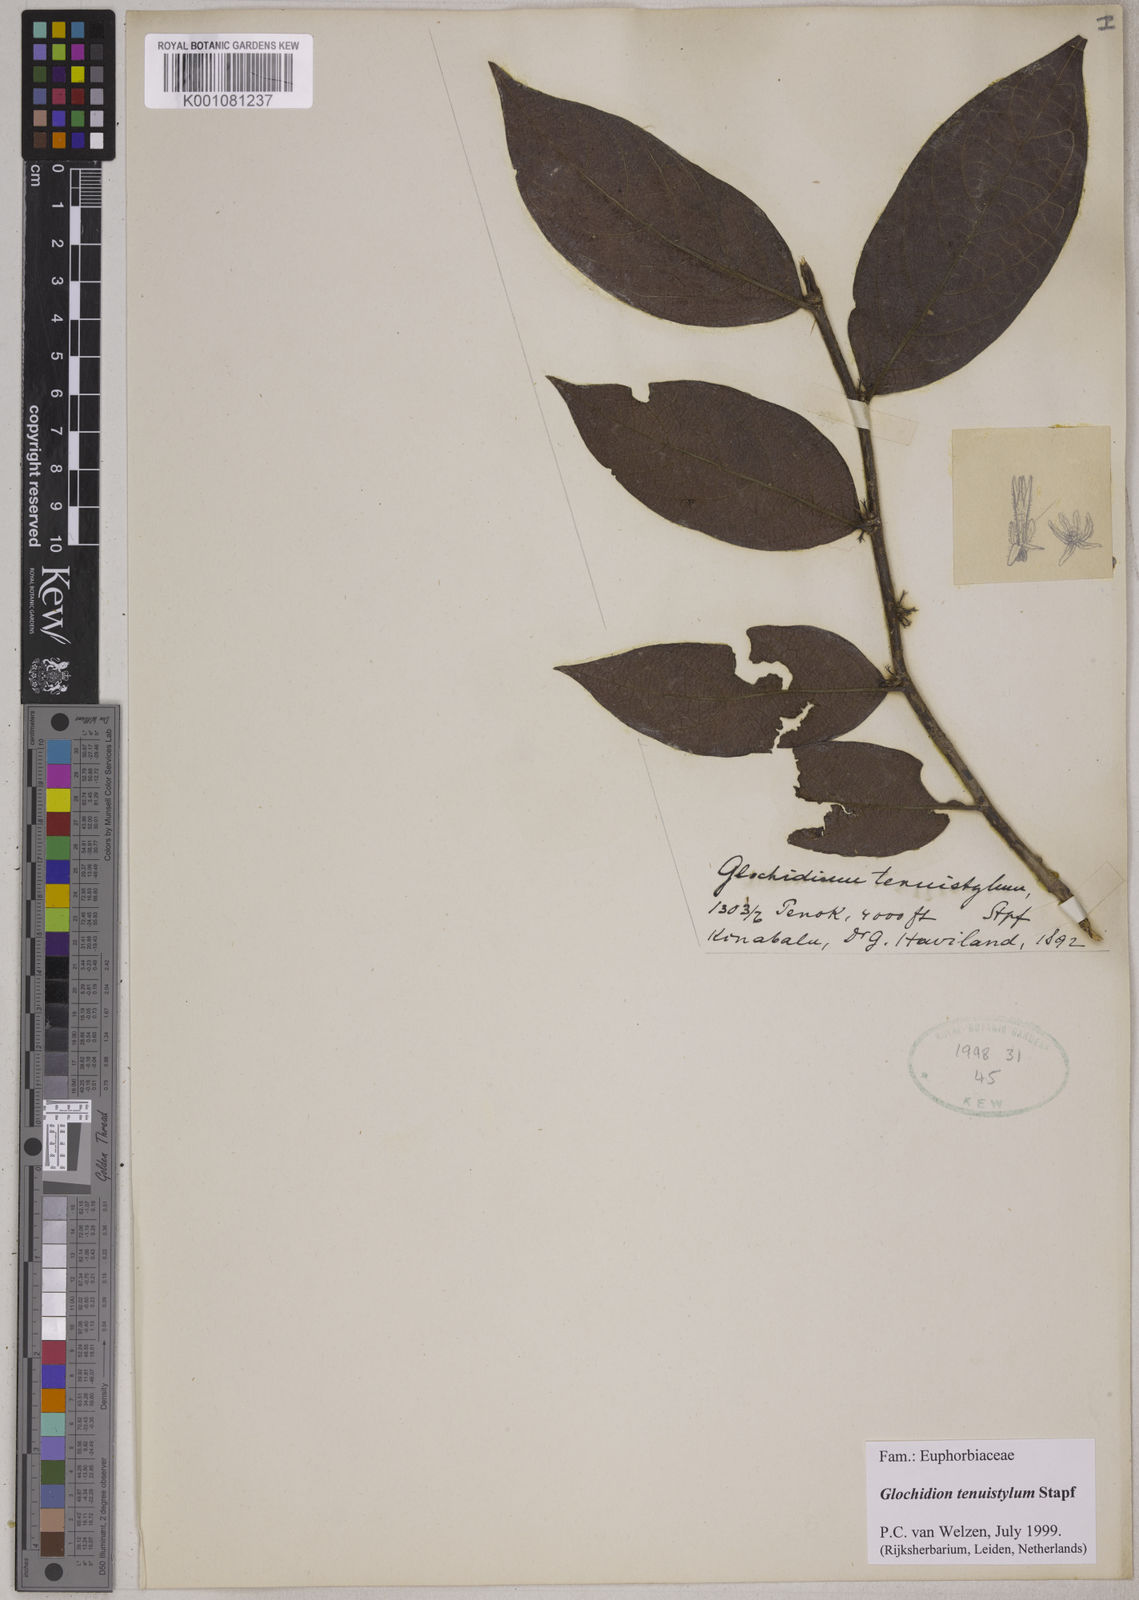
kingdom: Plantae
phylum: Tracheophyta
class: Magnoliopsida
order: Malpighiales
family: Phyllanthaceae
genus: Glochidion
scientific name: Glochidion tenuistylum
